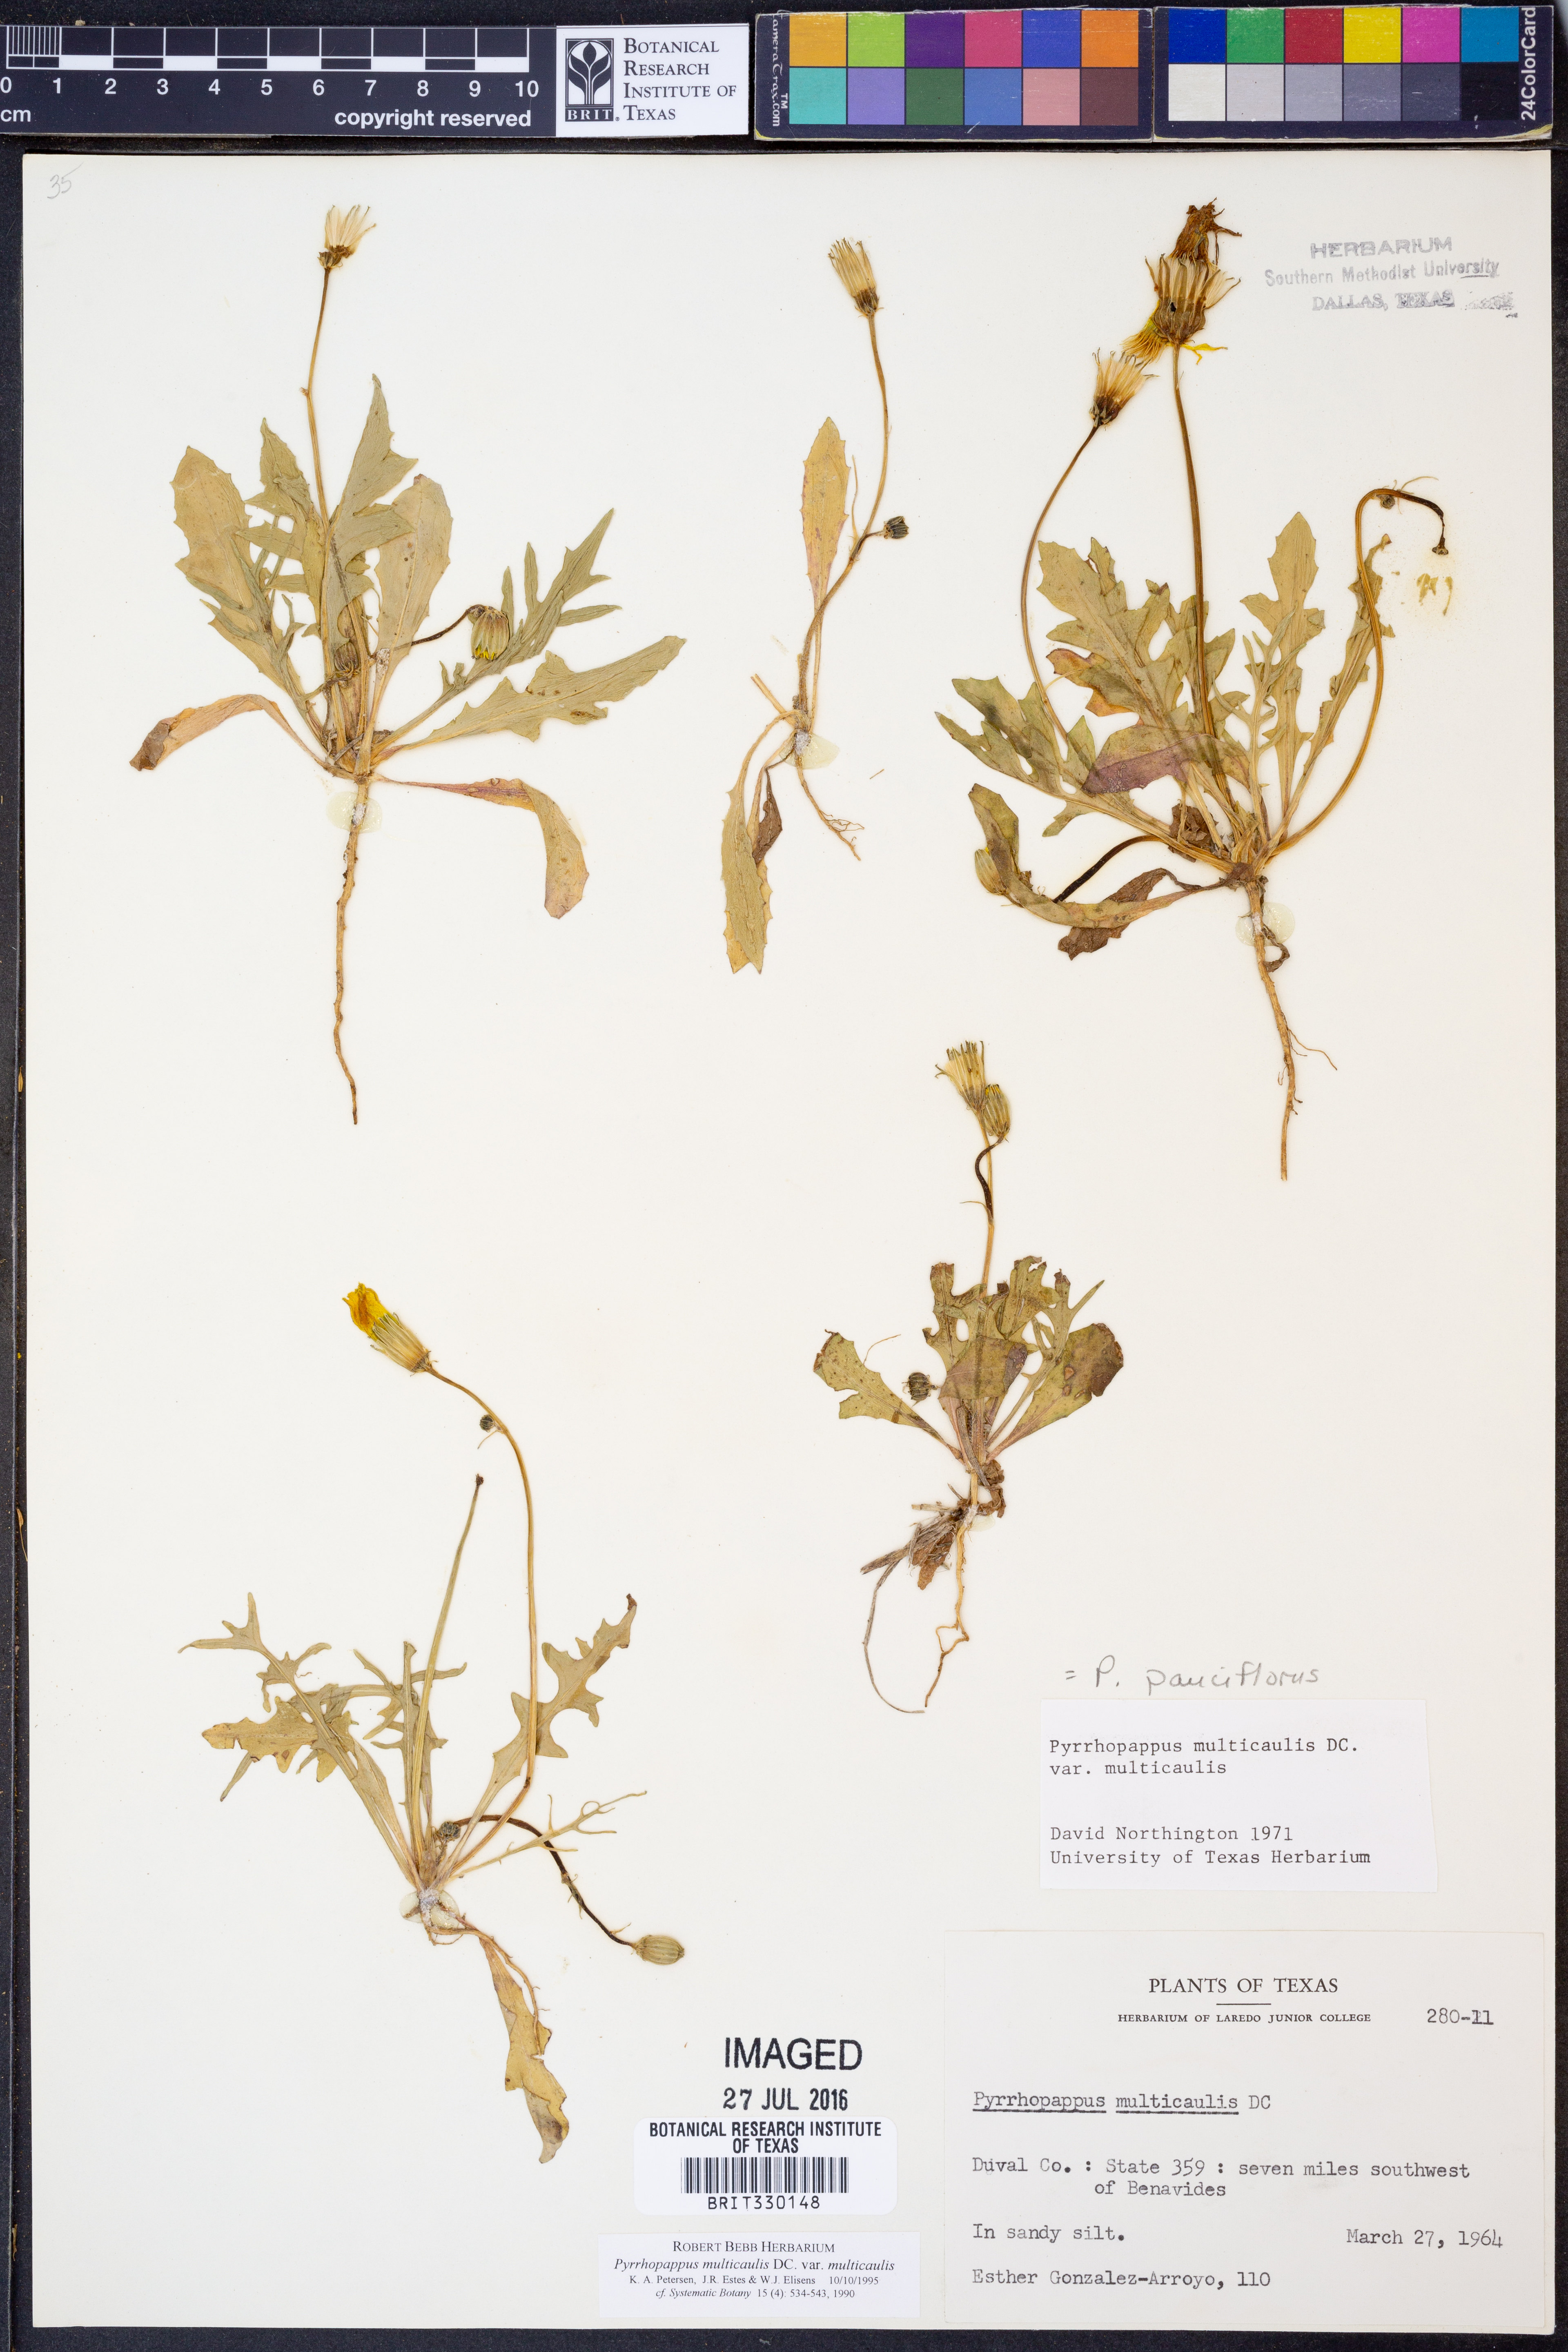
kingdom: Plantae
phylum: Tracheophyta
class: Magnoliopsida
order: Asterales
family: Asteraceae
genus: Pyrrhopappus
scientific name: Pyrrhopappus pauciflorus
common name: Texas false dandelion
